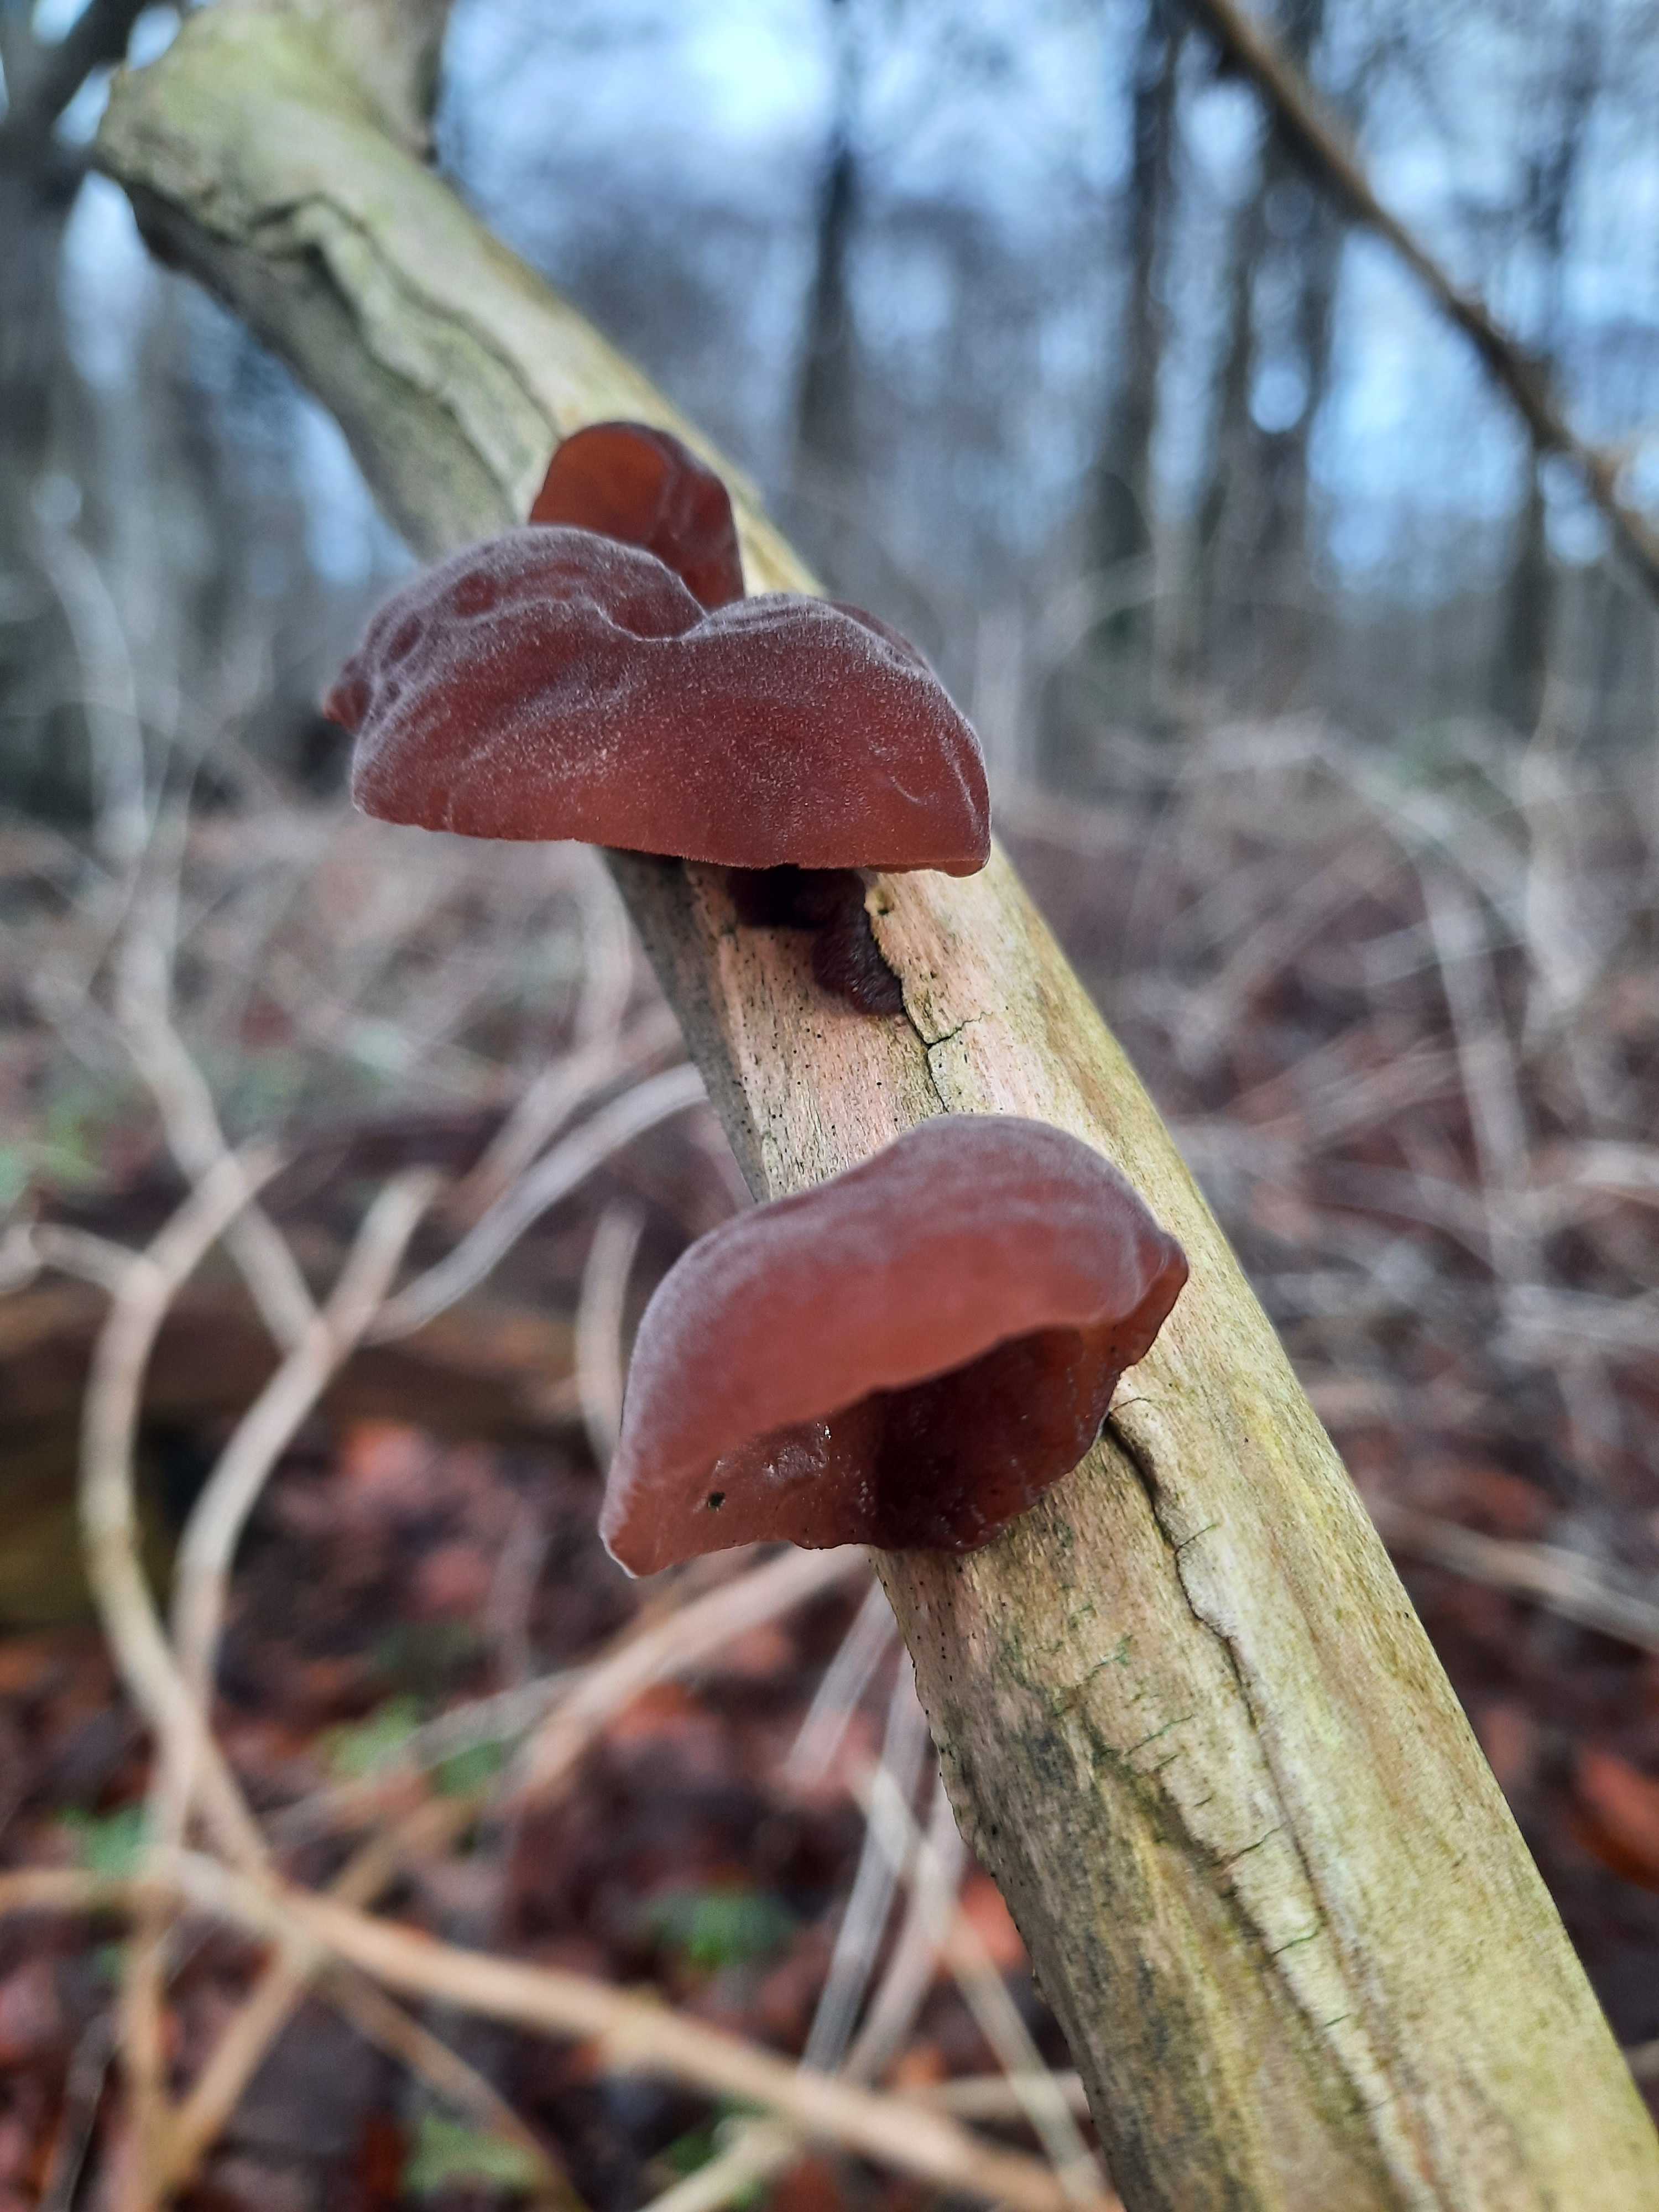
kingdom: Fungi
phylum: Basidiomycota
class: Agaricomycetes
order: Auriculariales
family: Auriculariaceae
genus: Auricularia
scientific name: Auricularia auricula-judae
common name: almindelig judasøre
